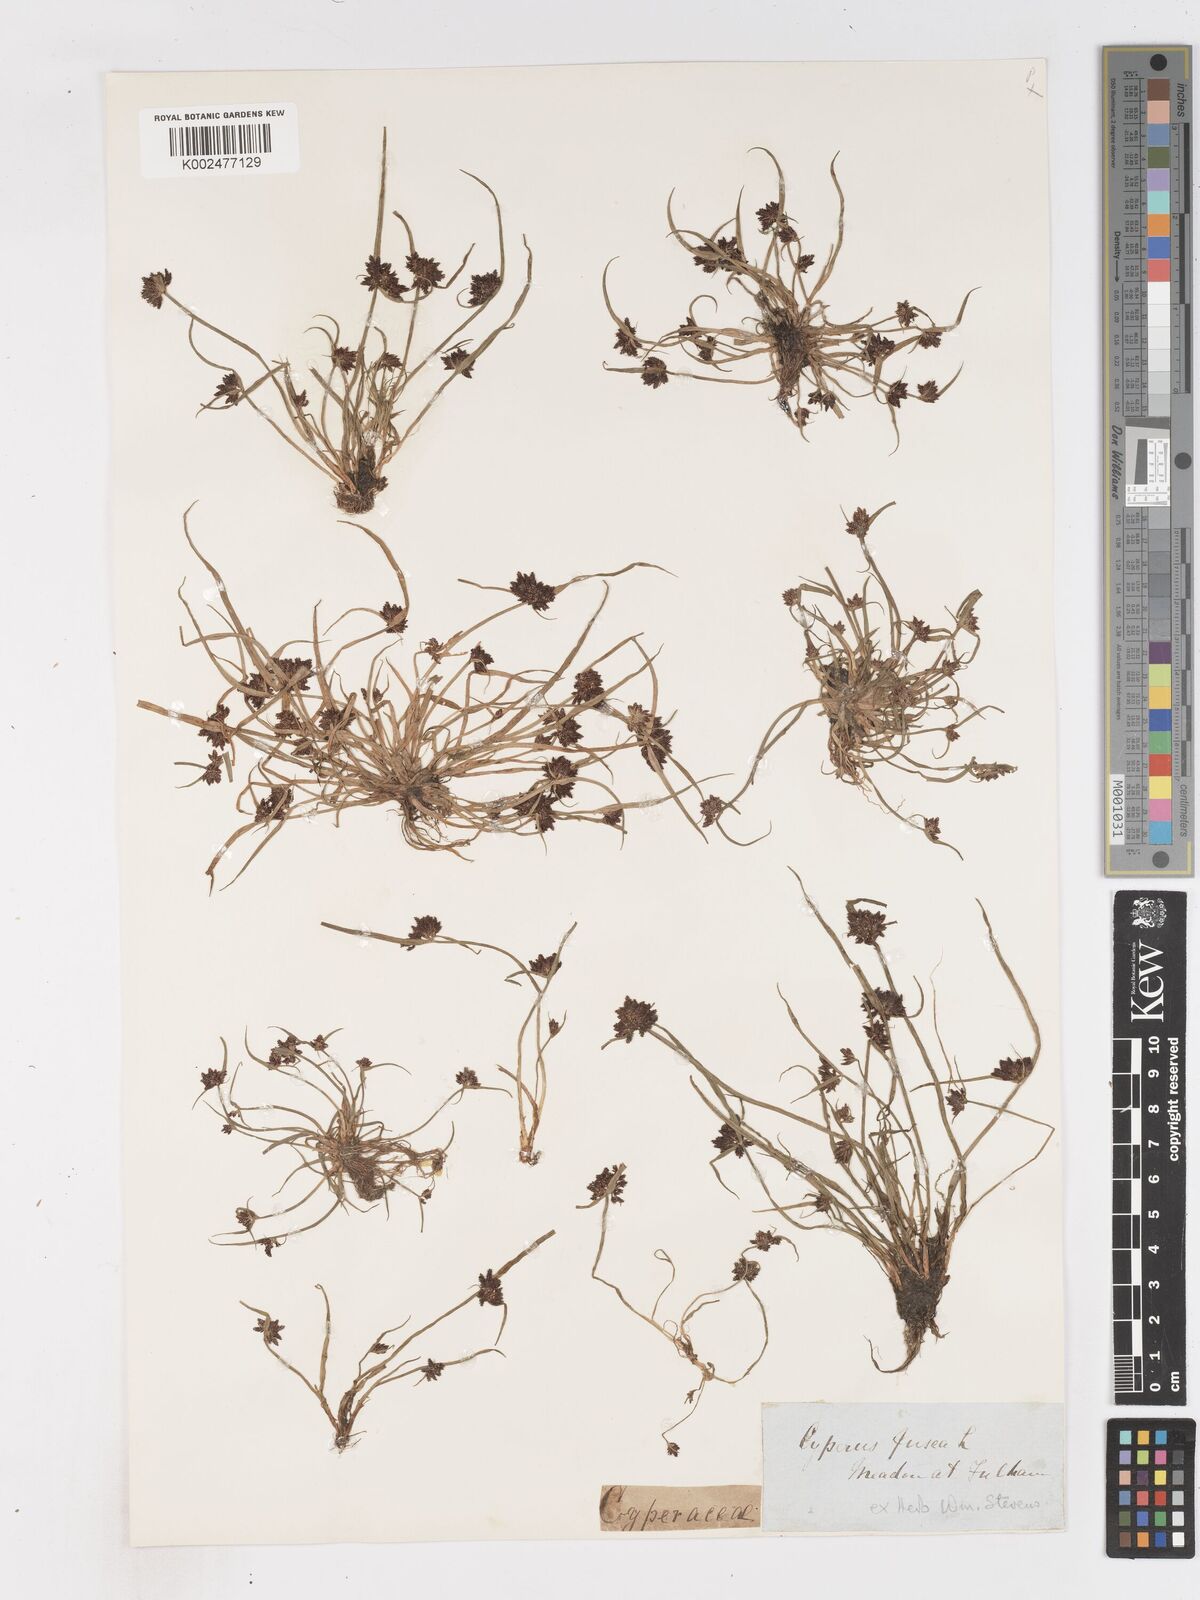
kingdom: Plantae
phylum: Tracheophyta
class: Liliopsida
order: Poales
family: Cyperaceae
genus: Cyperus
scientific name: Cyperus fuscus
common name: Brown galingale
